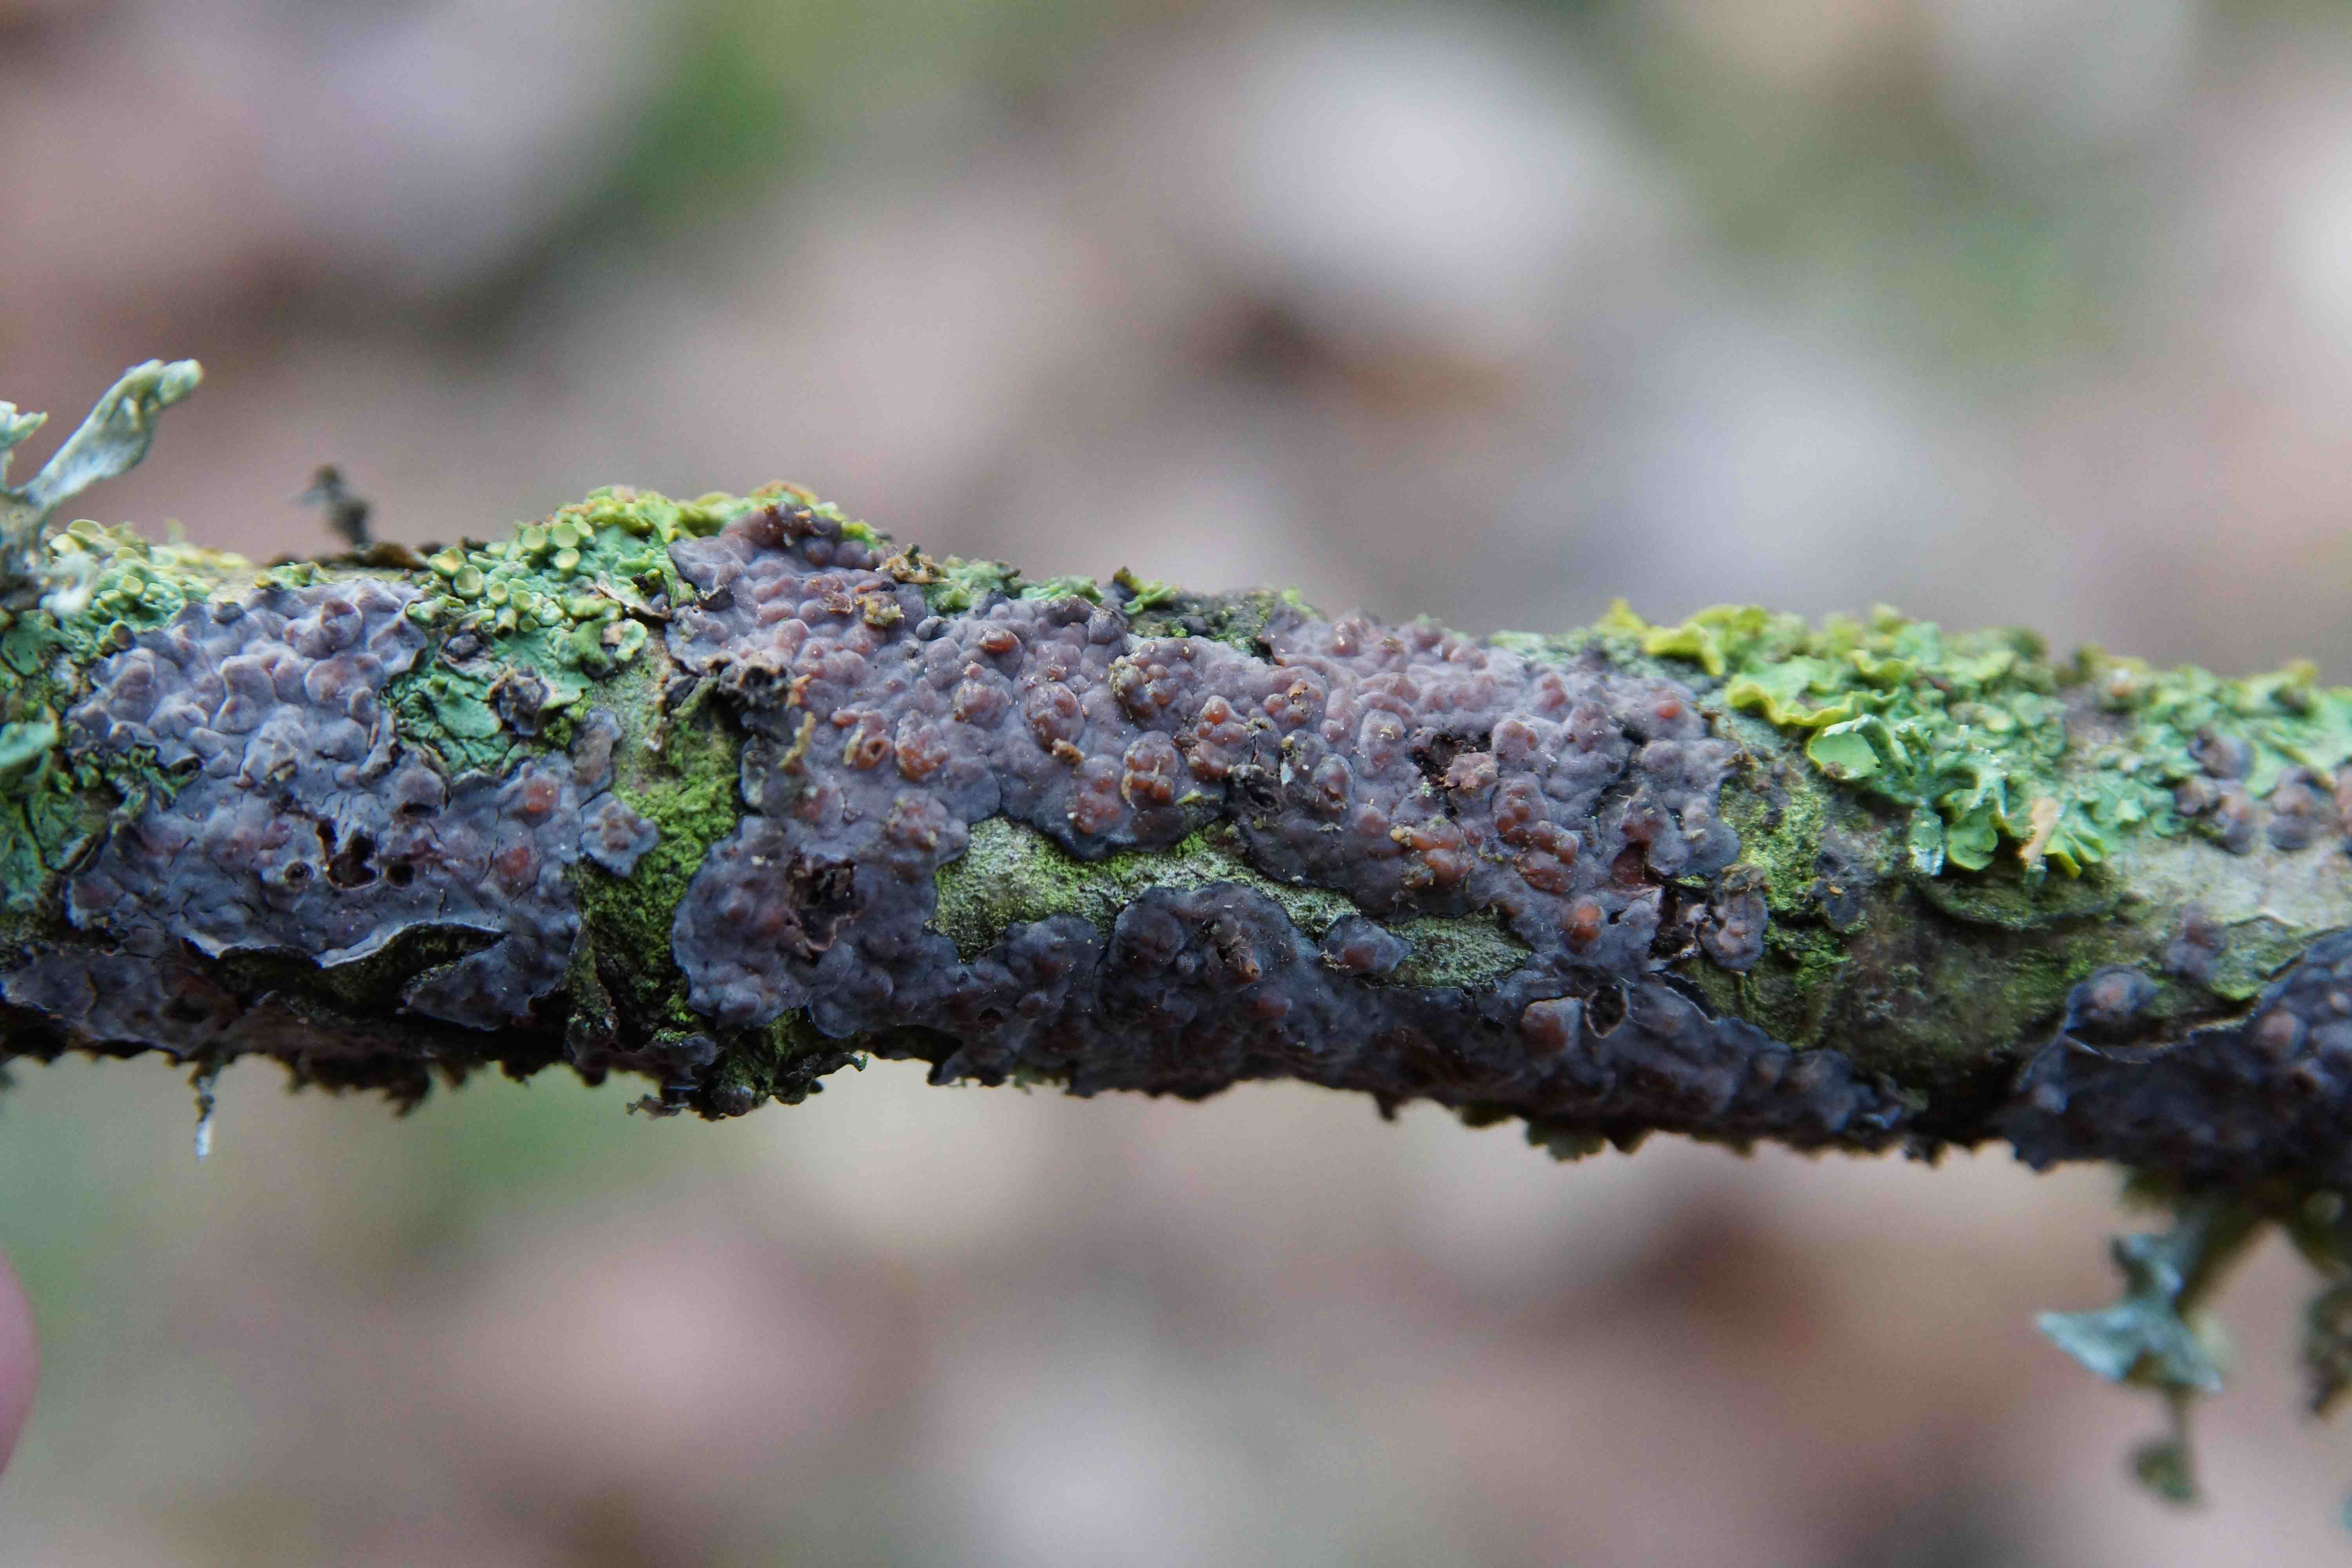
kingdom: Fungi
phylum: Basidiomycota
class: Agaricomycetes
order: Russulales
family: Peniophoraceae
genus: Peniophora
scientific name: Peniophora quercina
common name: ege-voksskind
